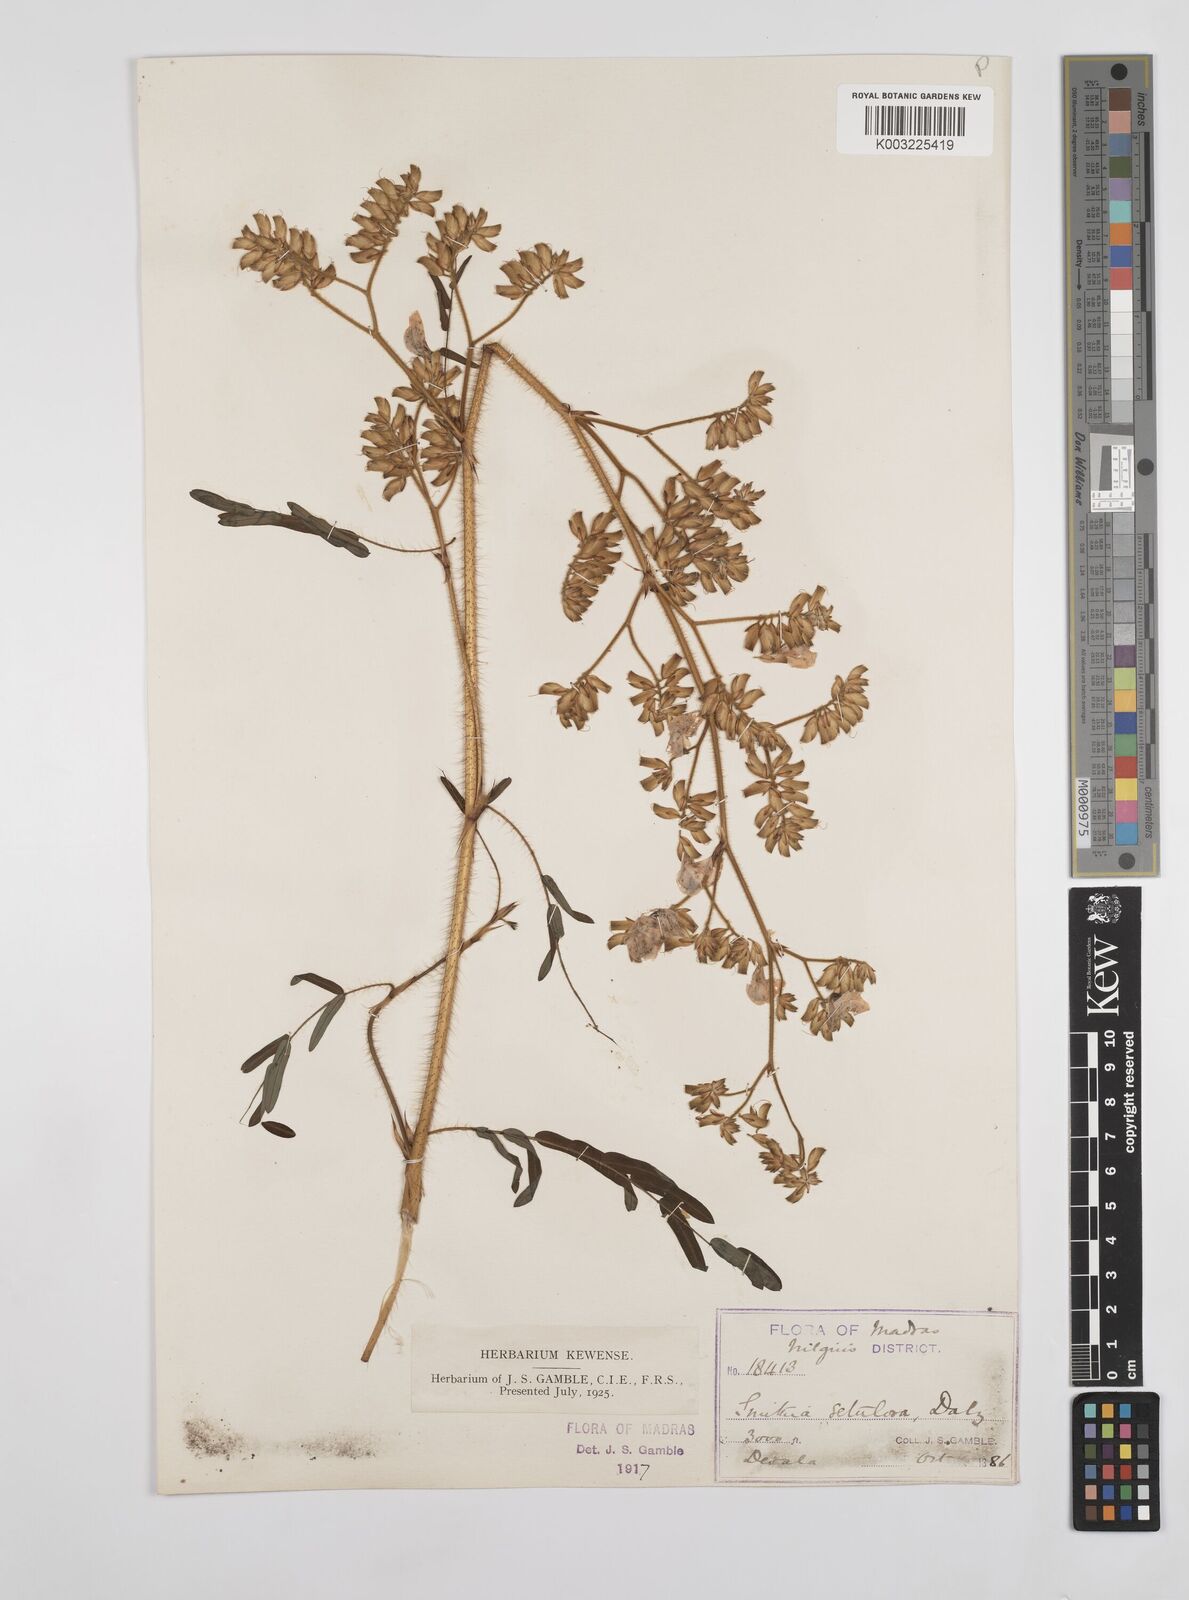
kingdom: Plantae
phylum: Tracheophyta
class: Magnoliopsida
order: Fabales
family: Fabaceae
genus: Smithia
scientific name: Smithia setulosa
